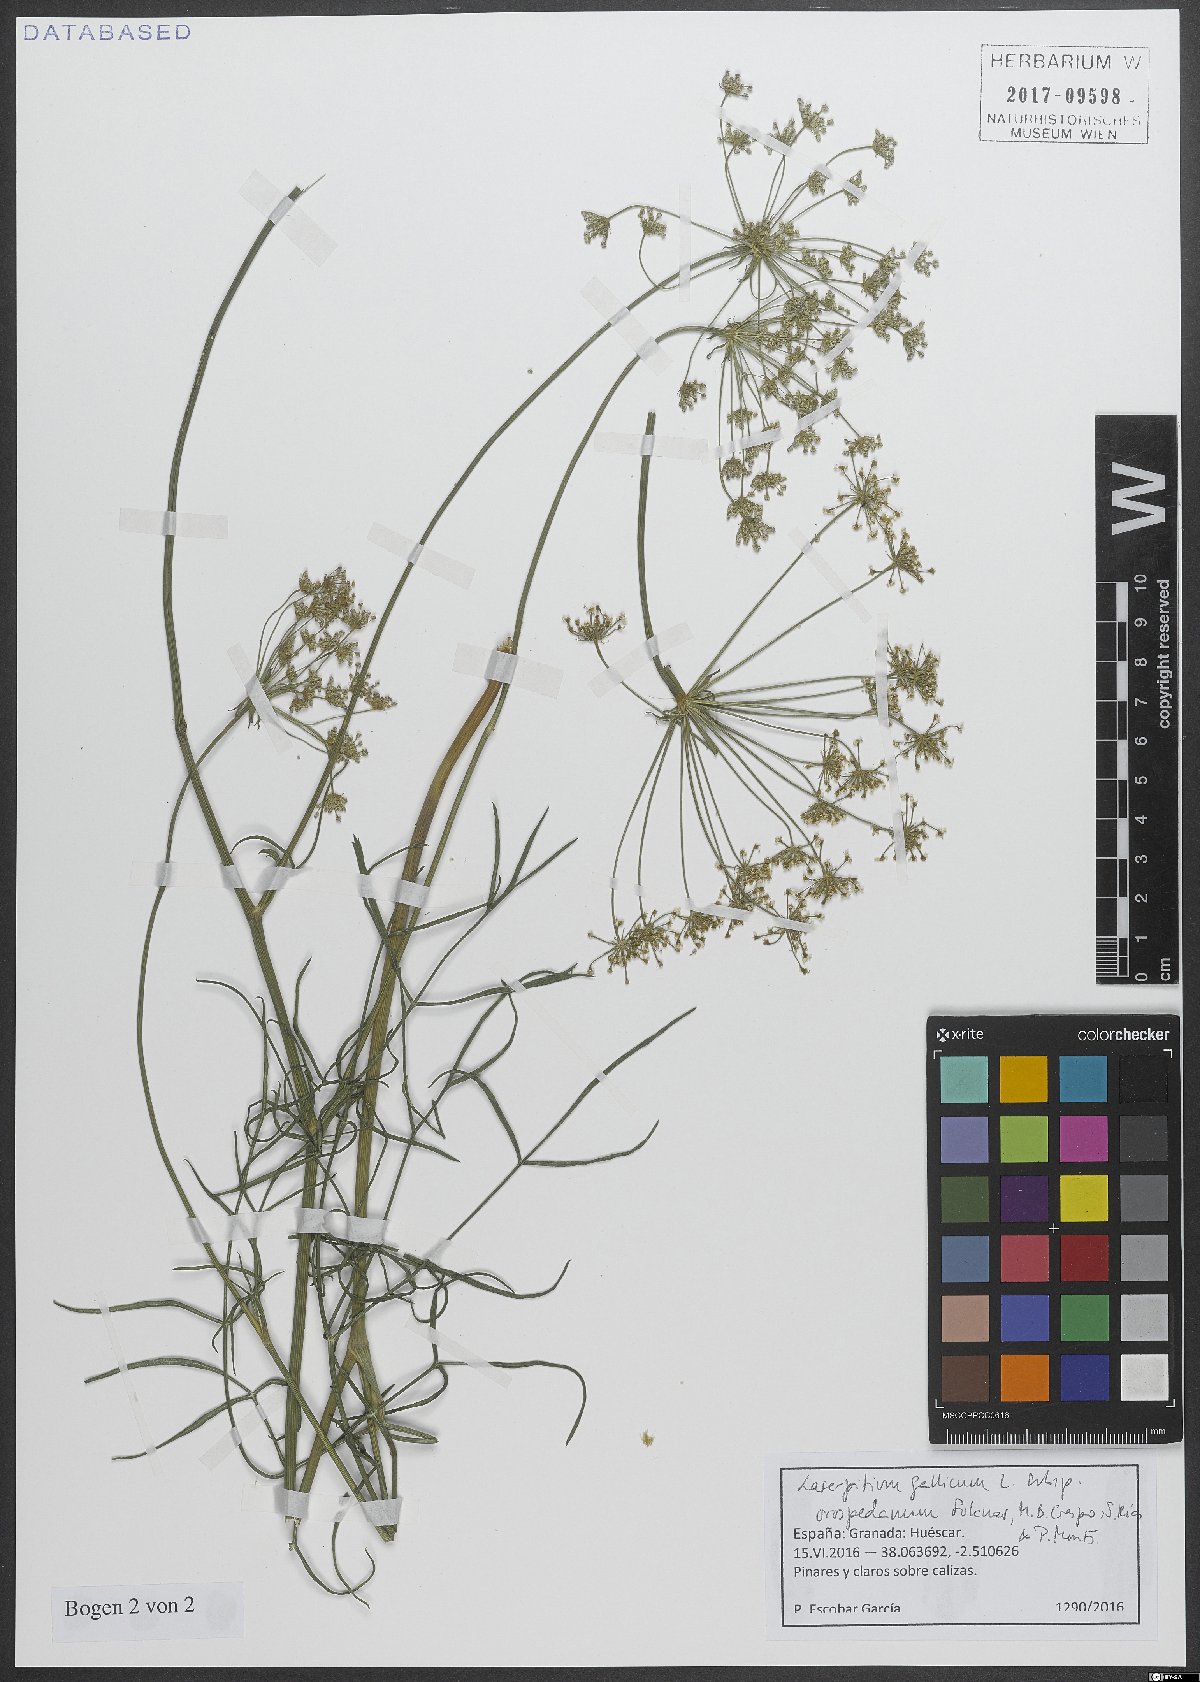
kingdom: Plantae
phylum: Tracheophyta
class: Magnoliopsida
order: Apiales
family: Apiaceae
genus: Laserpitium
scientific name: Laserpitium gallicum
